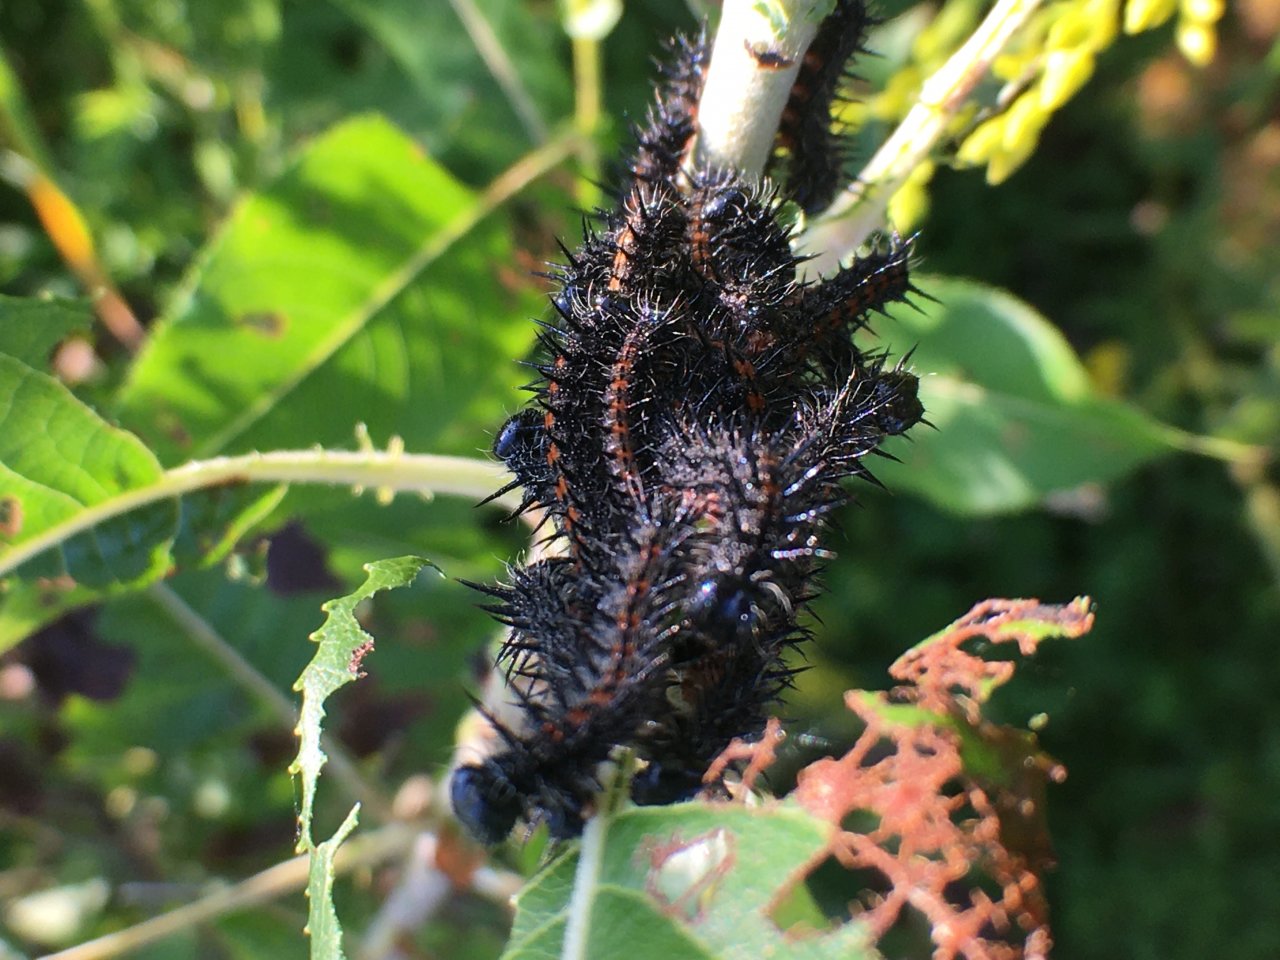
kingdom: Animalia
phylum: Arthropoda
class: Insecta
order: Lepidoptera
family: Nymphalidae
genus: Nymphalis
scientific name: Nymphalis antiopa
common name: Mourning Cloak
